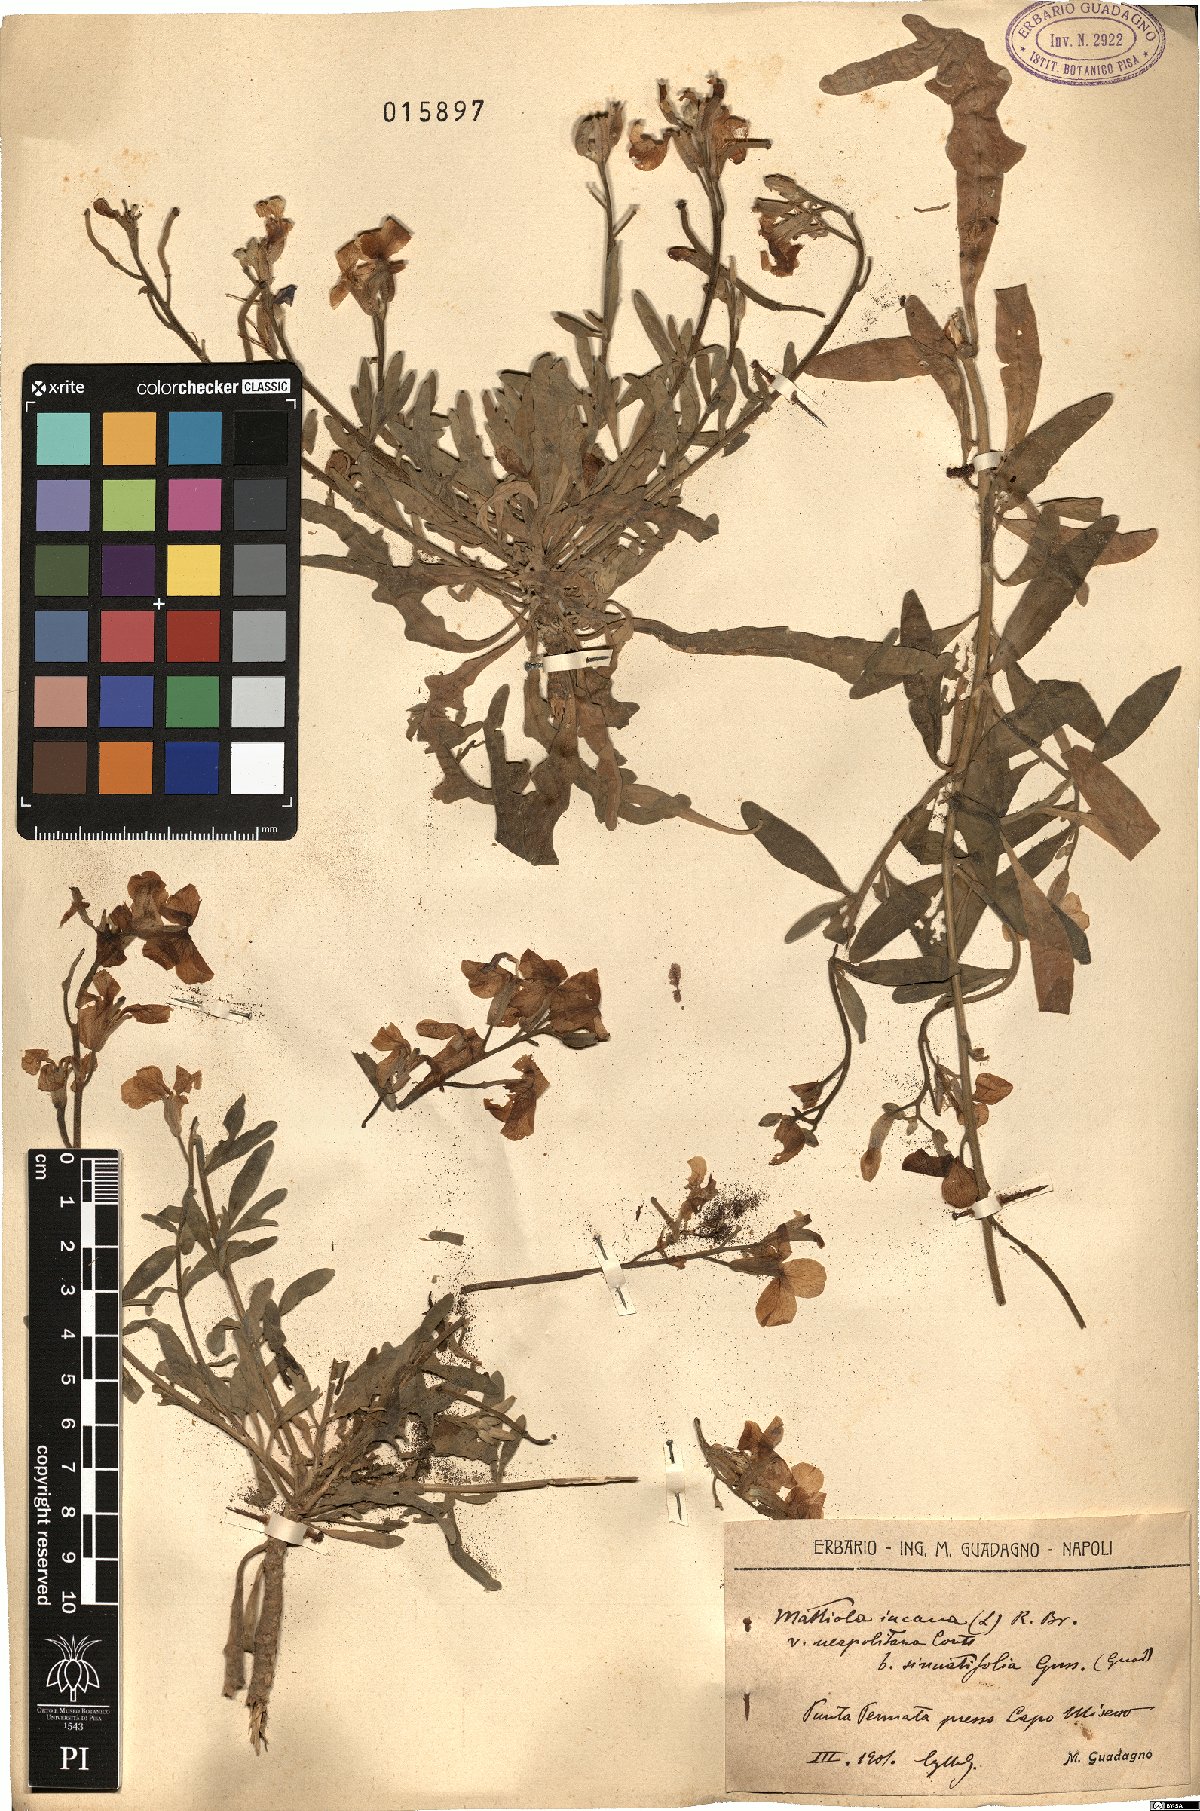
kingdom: Plantae
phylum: Tracheophyta
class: Magnoliopsida
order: Brassicales
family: Brassicaceae
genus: Matthiola
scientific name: Matthiola incana
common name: Hoary stock
